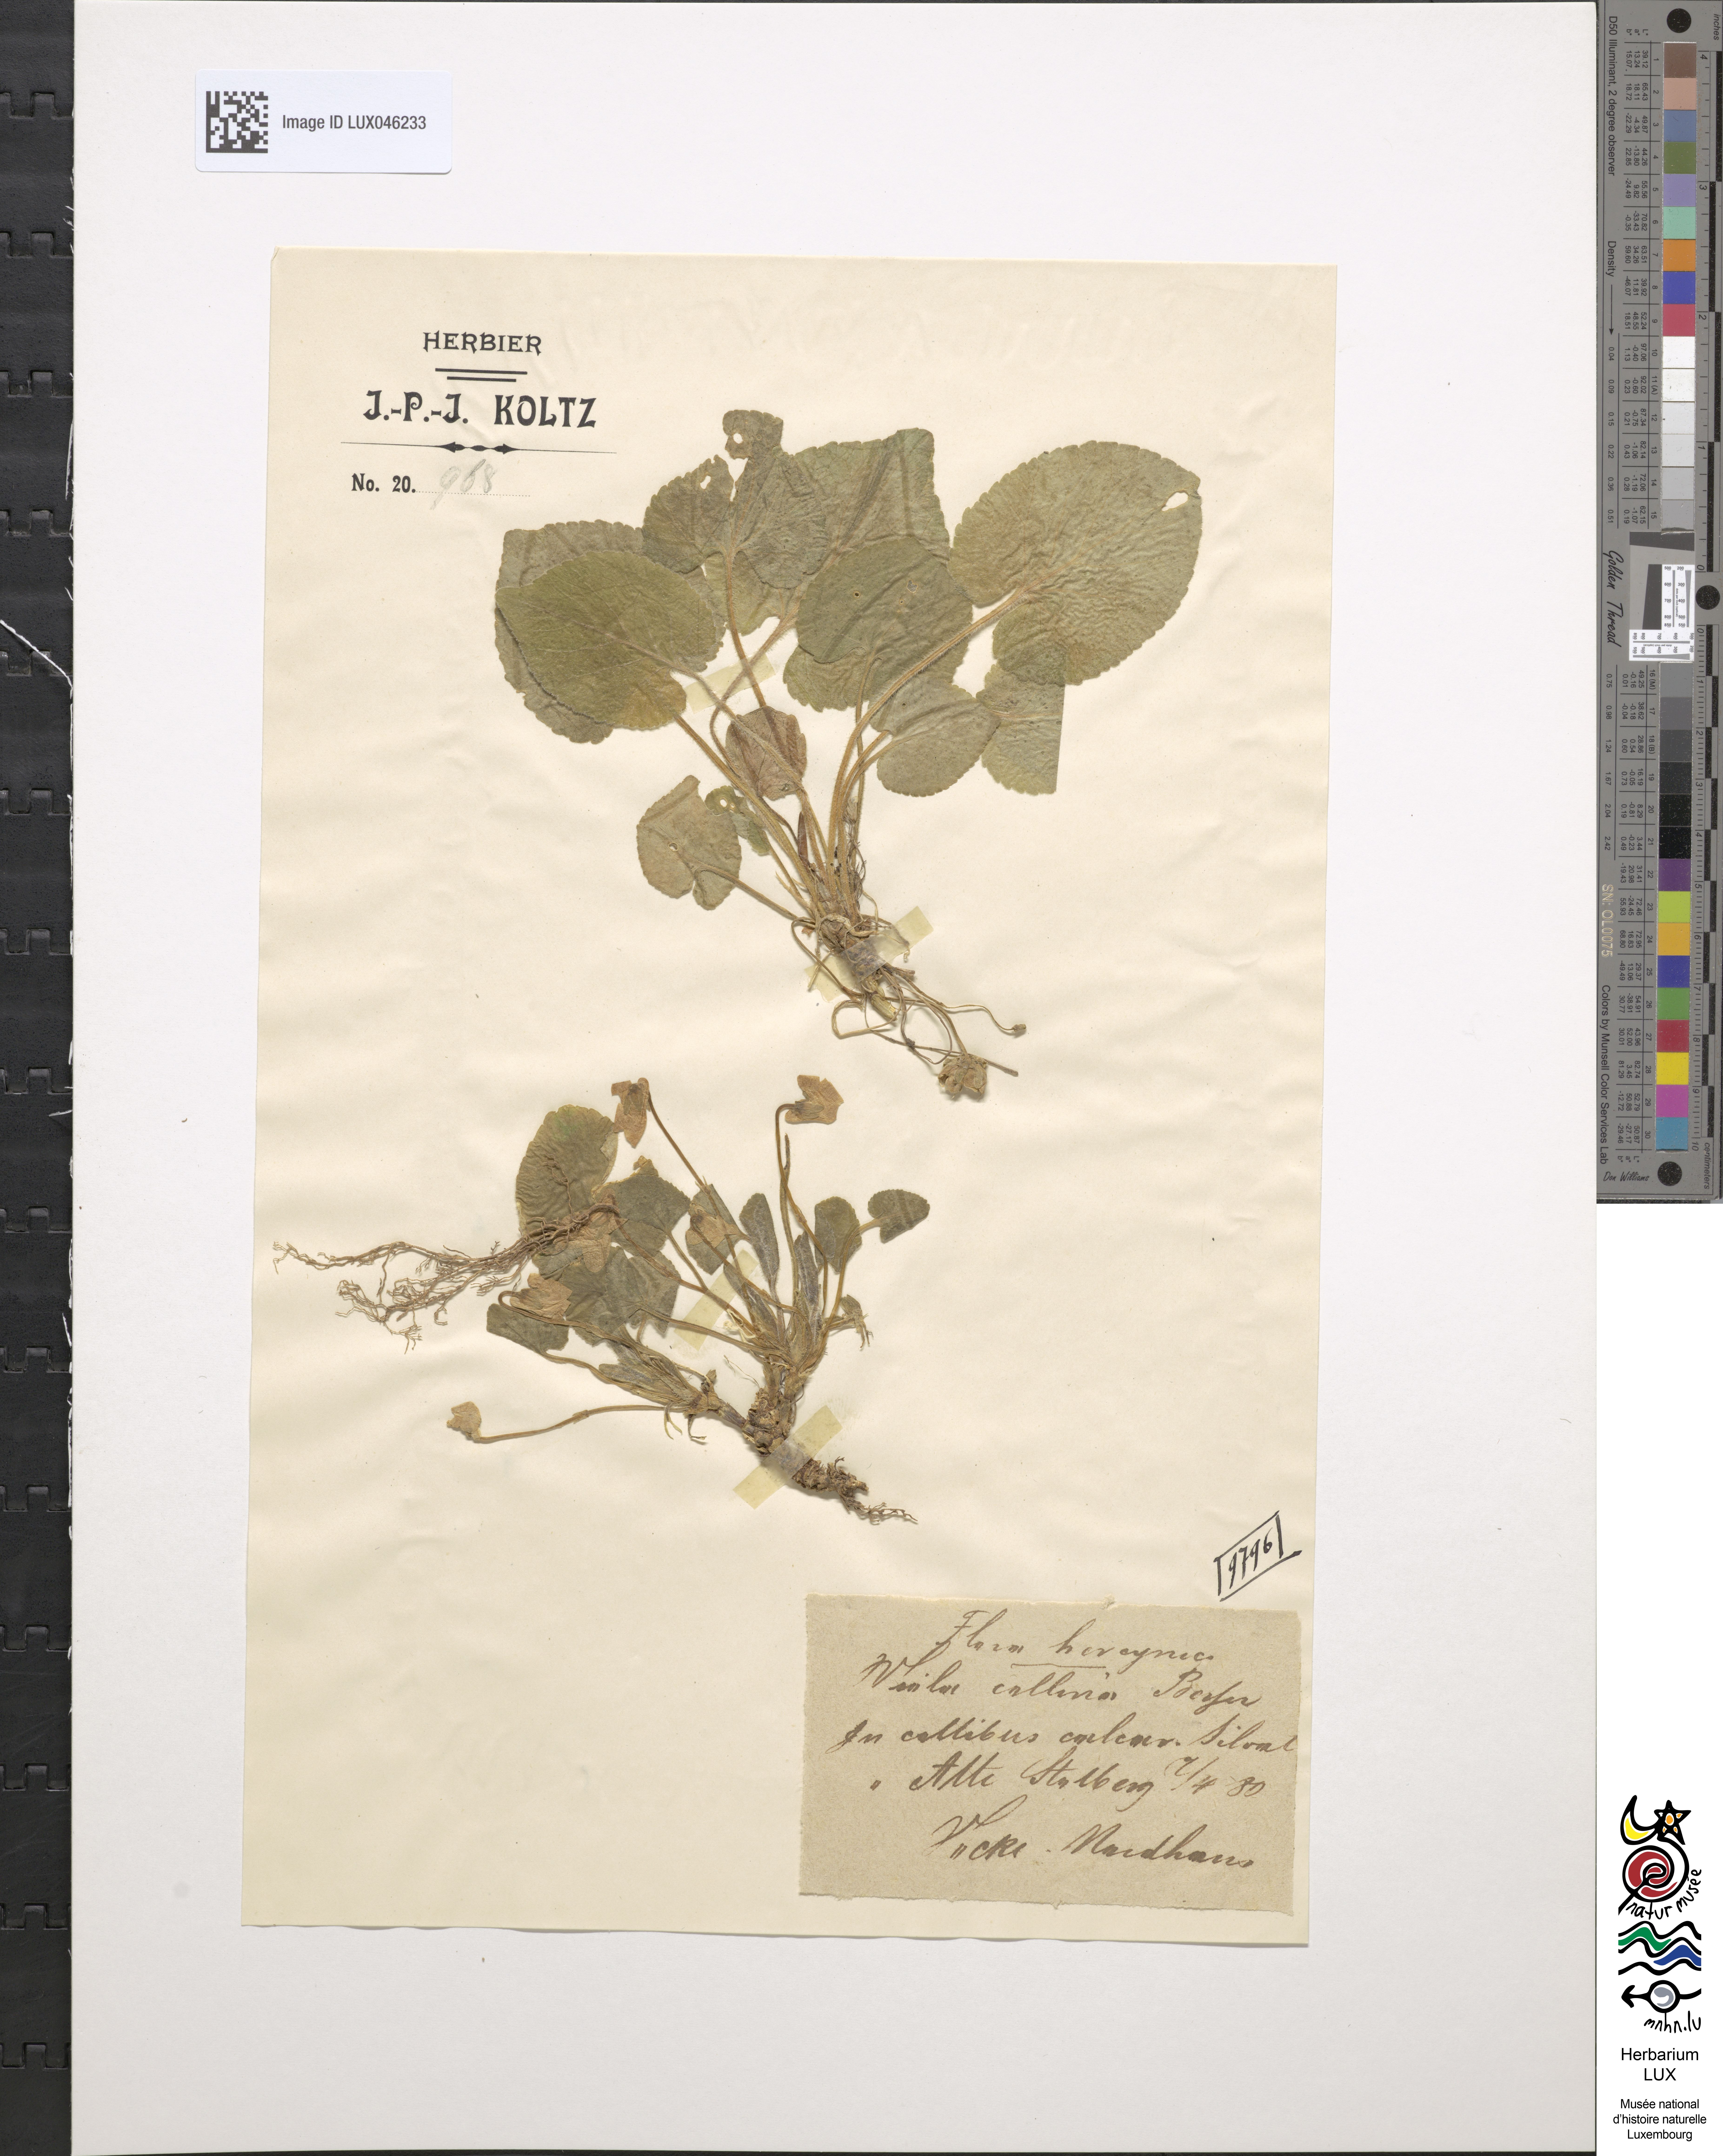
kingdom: Plantae
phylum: Tracheophyta
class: Magnoliopsida
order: Malpighiales
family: Violaceae
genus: Viola
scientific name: Viola collina
